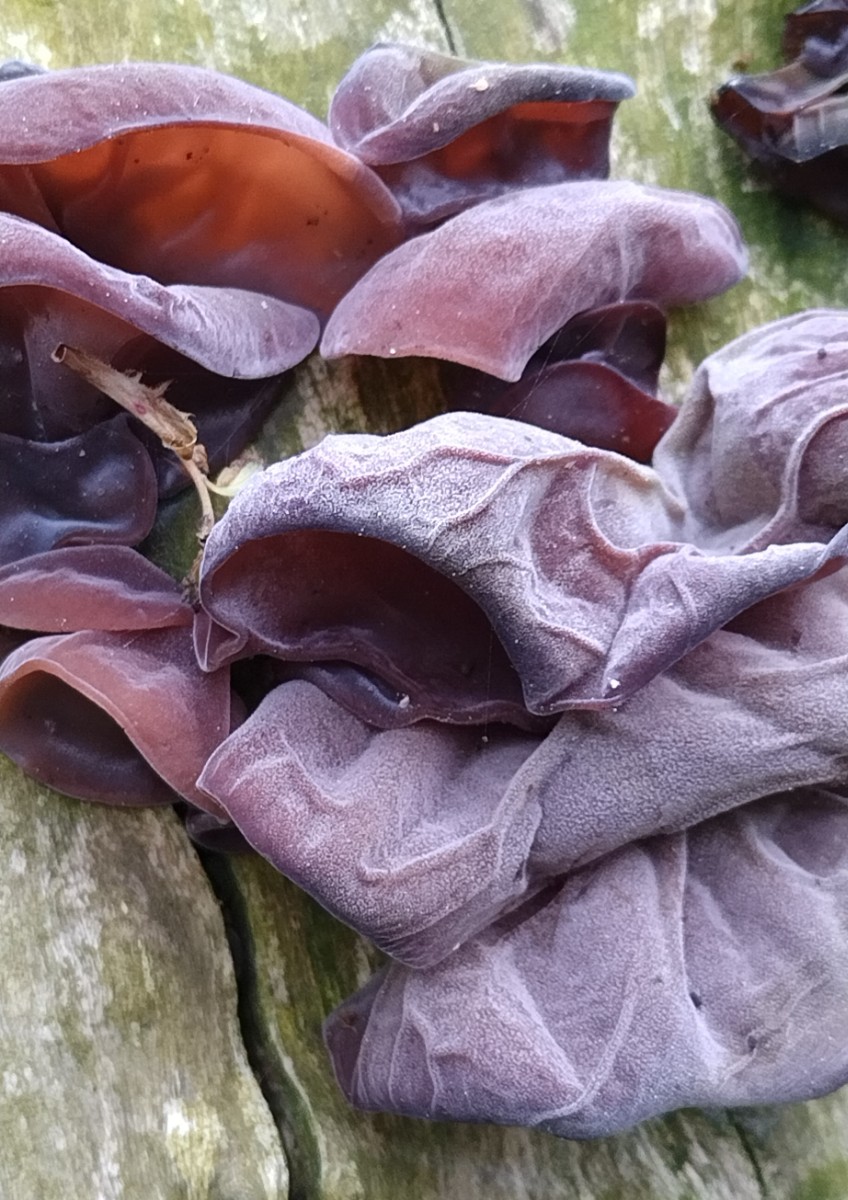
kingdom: Fungi
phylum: Basidiomycota
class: Agaricomycetes
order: Auriculariales
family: Auriculariaceae
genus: Auricularia
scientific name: Auricularia auricula-judae
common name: almindelig judasøre
